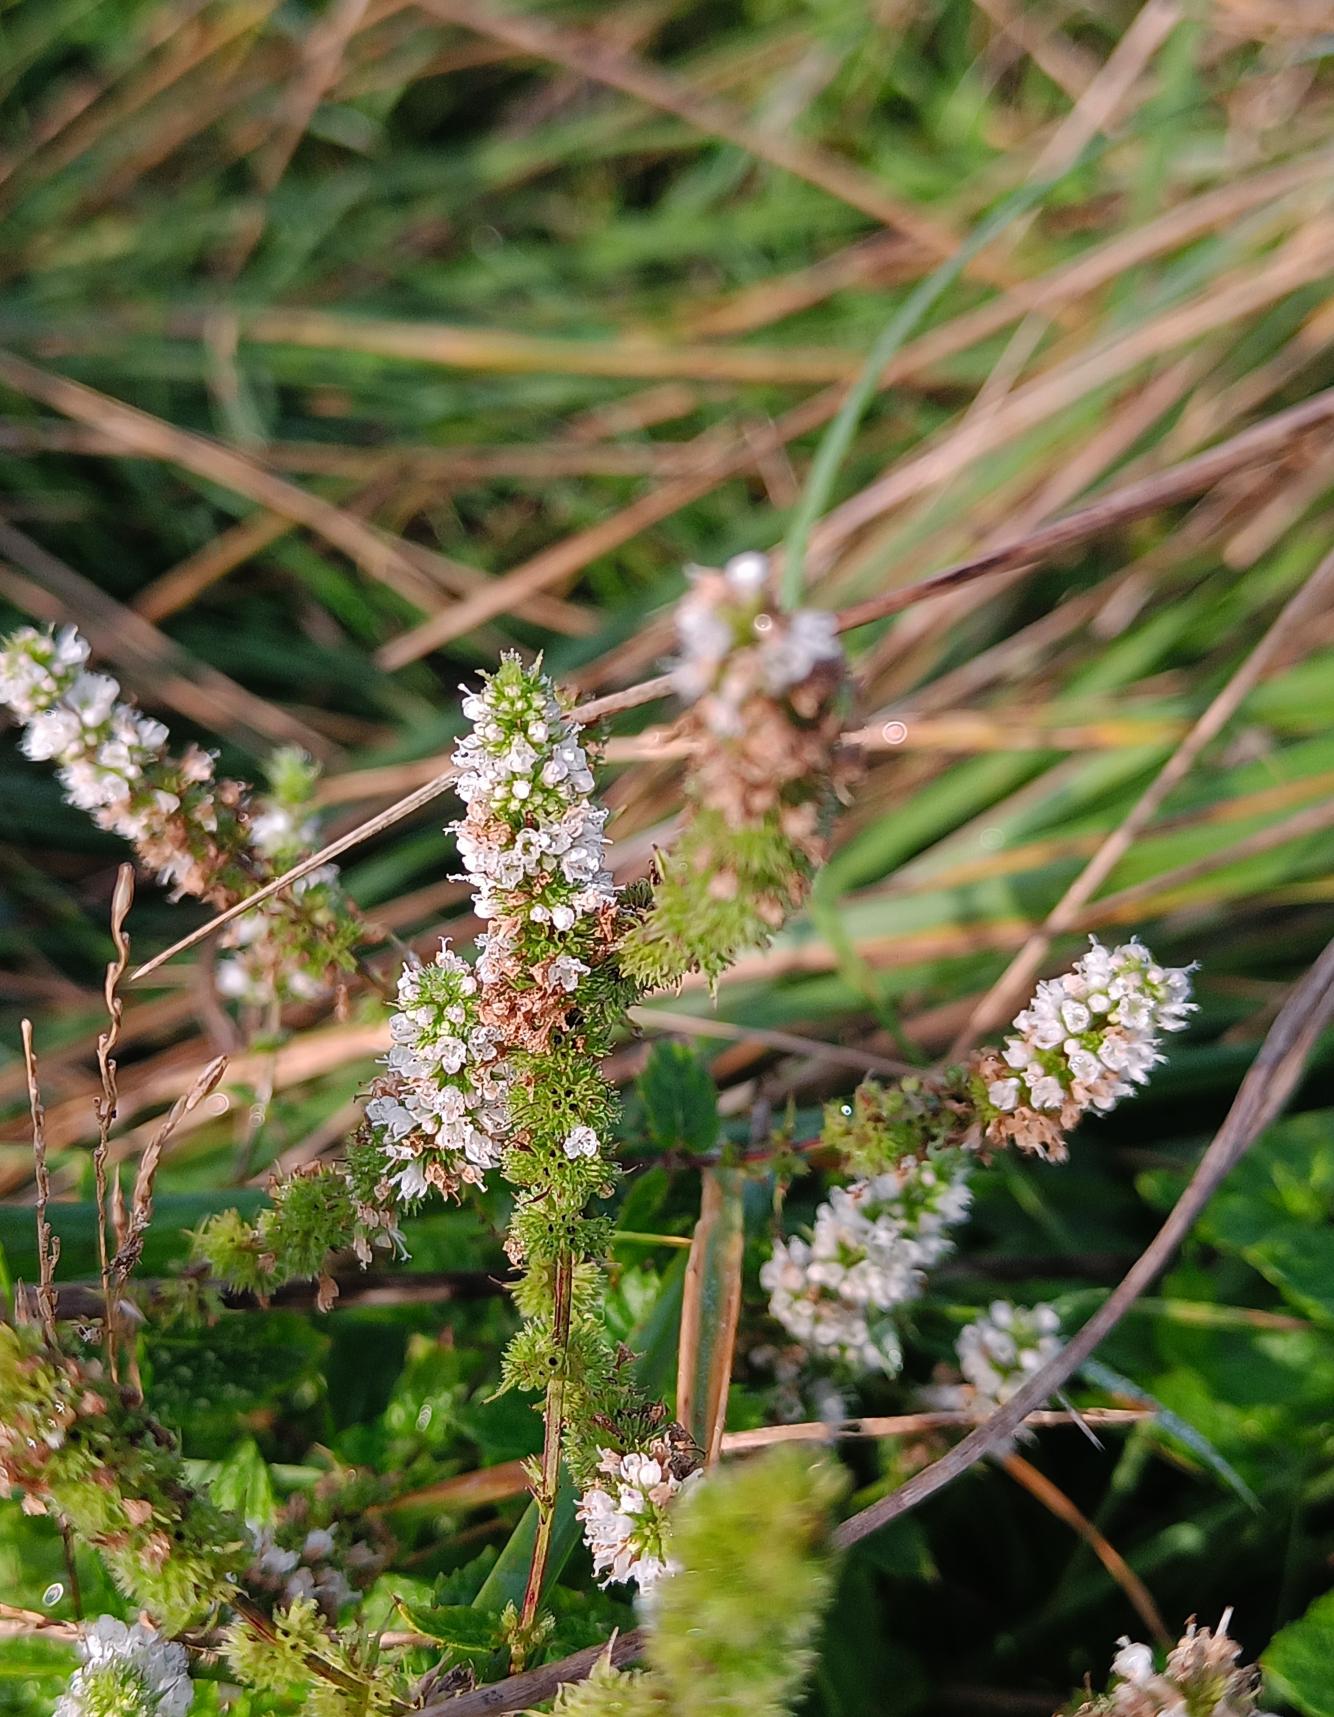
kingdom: Plantae
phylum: Tracheophyta
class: Magnoliopsida
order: Lamiales
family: Lamiaceae
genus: Mentha
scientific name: Mentha suaveolens
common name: Rundbladet mynte
